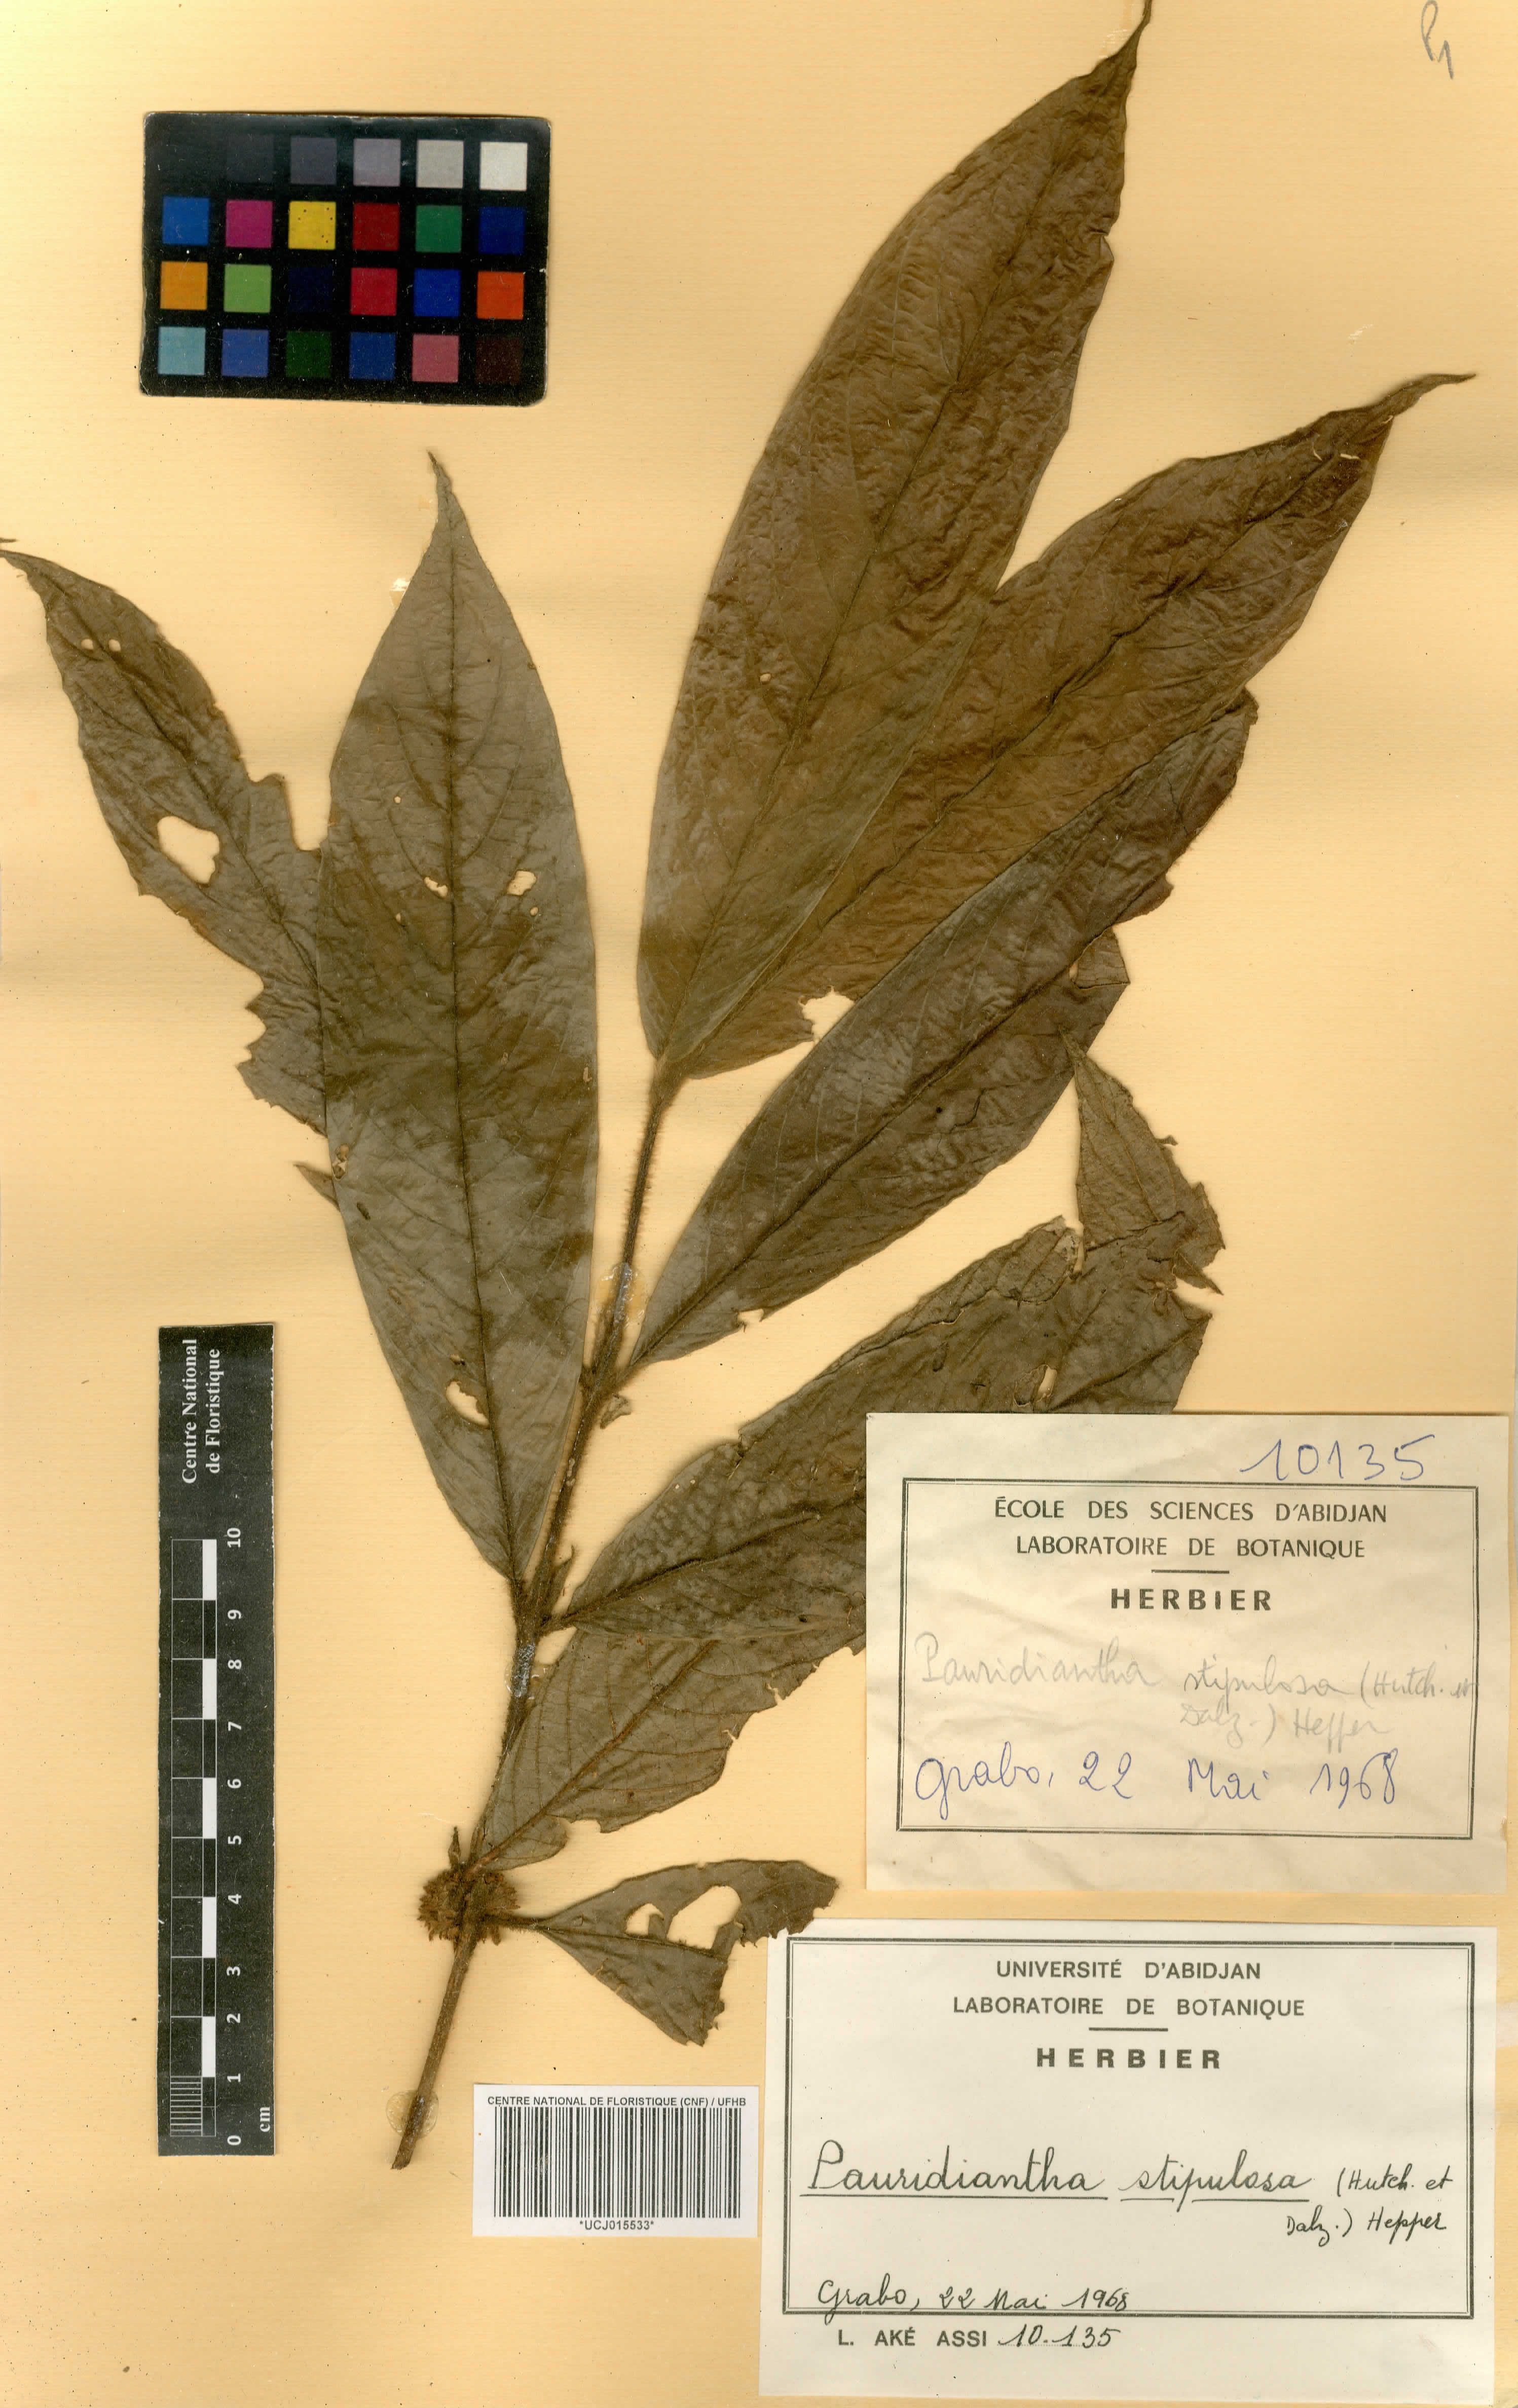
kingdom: Plantae
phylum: Tracheophyta
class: Magnoliopsida
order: Gentianales
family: Rubiaceae
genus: Pauridiantha
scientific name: Pauridiantha stipulosa
